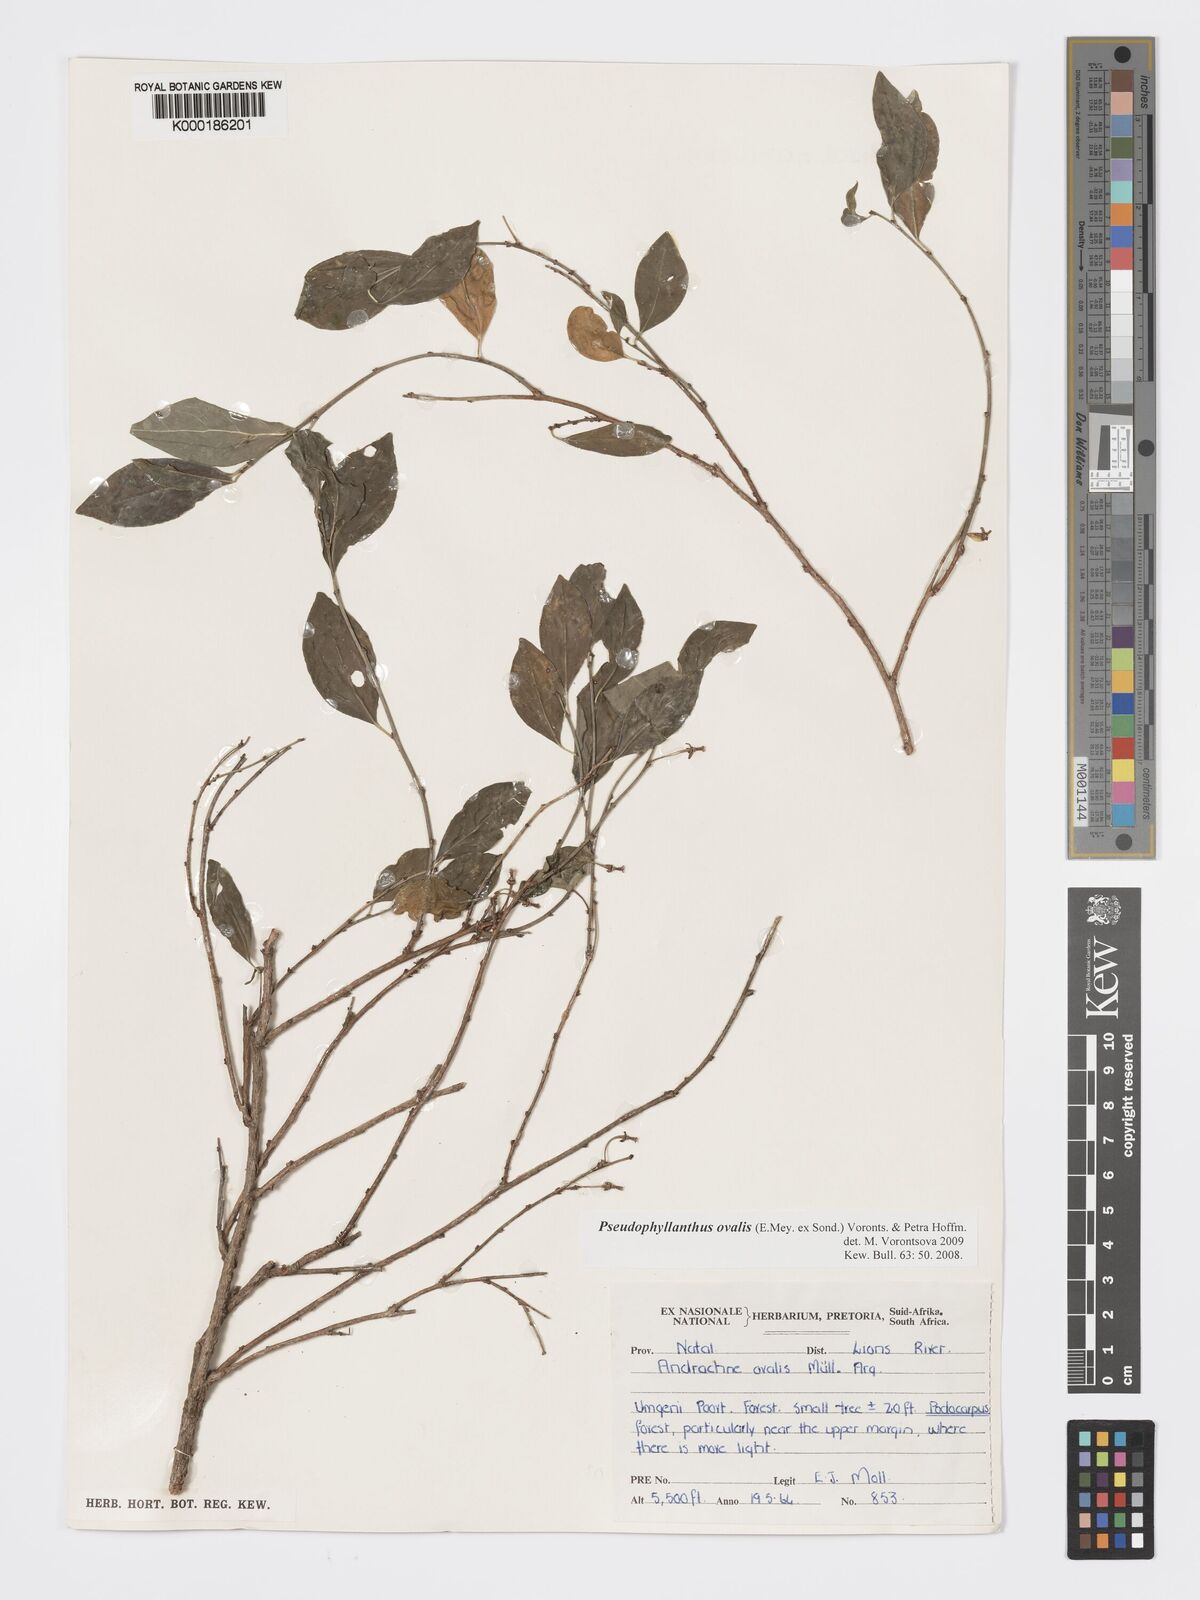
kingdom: Plantae
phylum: Tracheophyta
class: Magnoliopsida
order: Malpighiales
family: Phyllanthaceae
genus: Pseudophyllanthus
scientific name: Pseudophyllanthus ovalis
